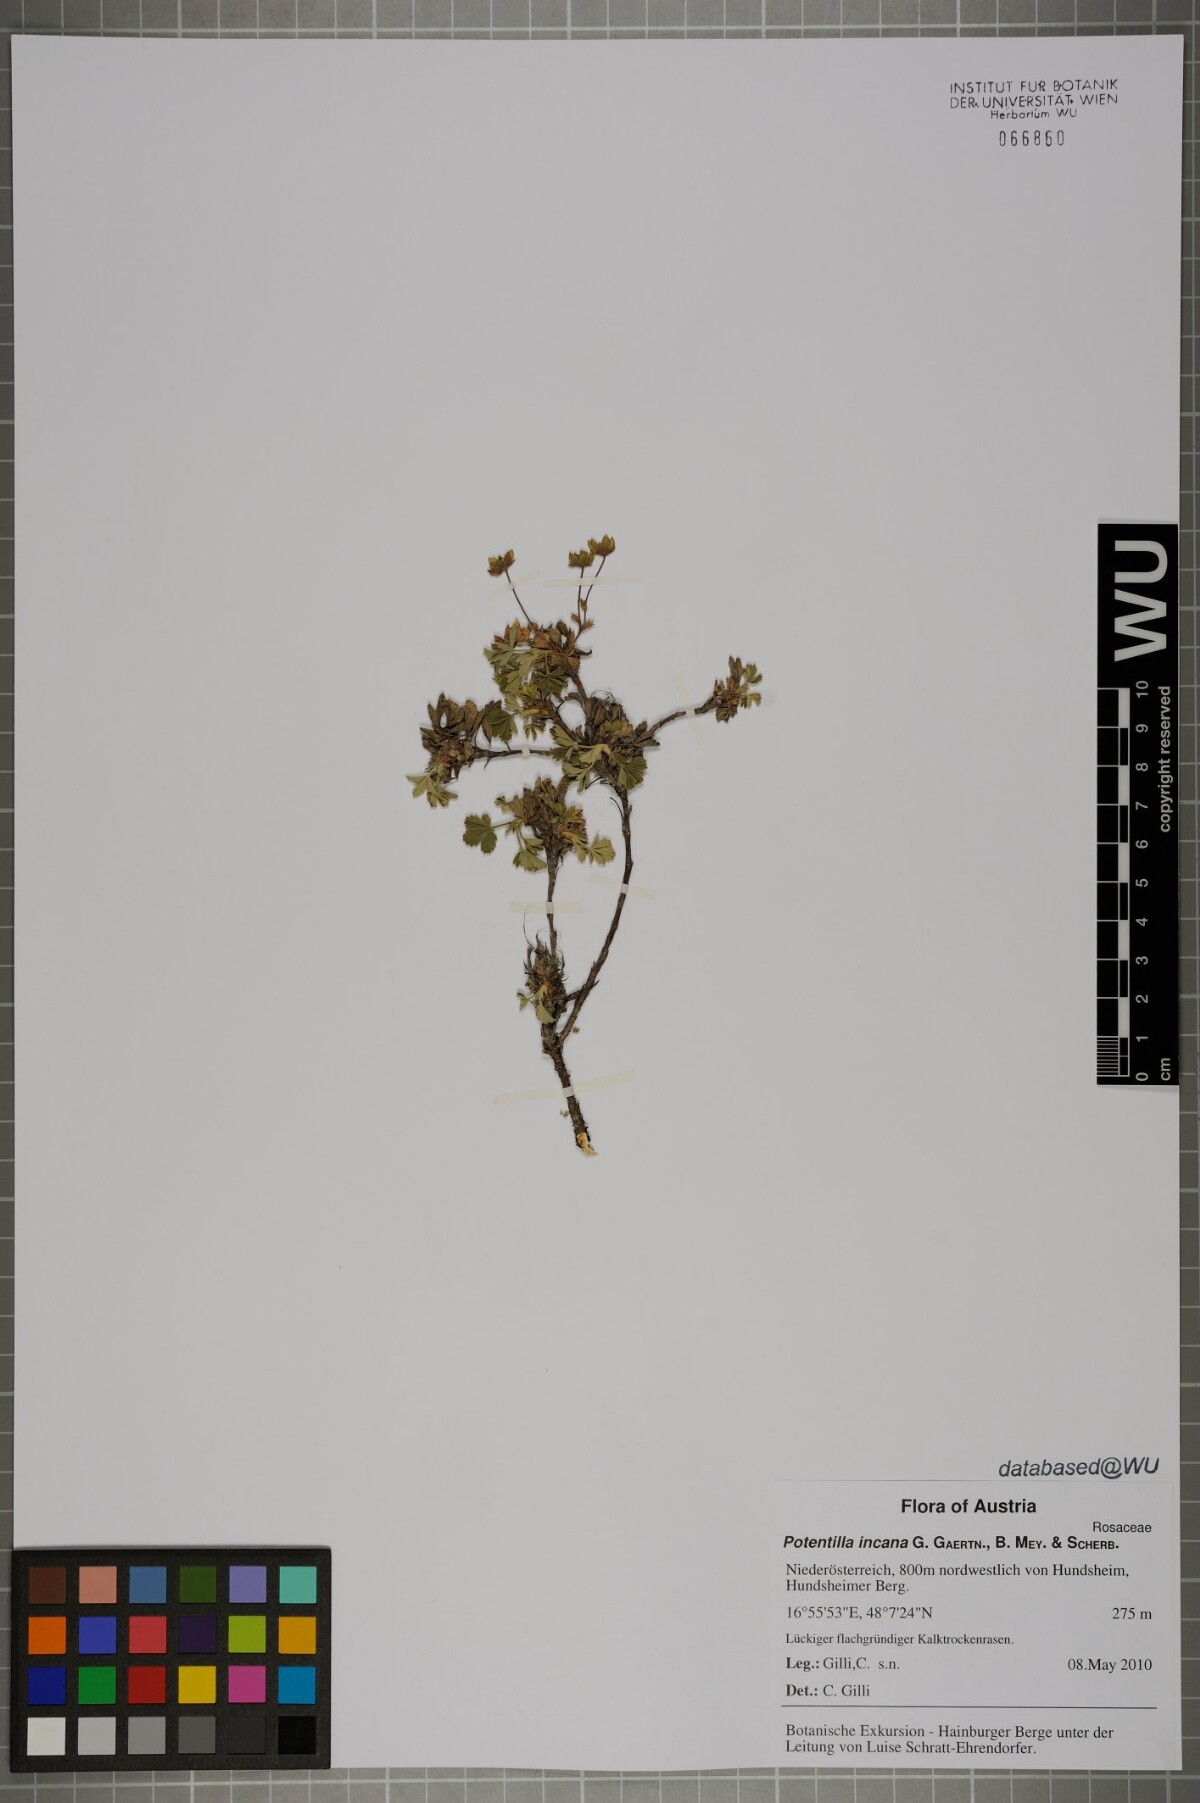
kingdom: Plantae
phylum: Tracheophyta
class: Magnoliopsida
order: Rosales
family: Rosaceae
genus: Potentilla
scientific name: Potentilla cinerea
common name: Ashy cinquefoil
